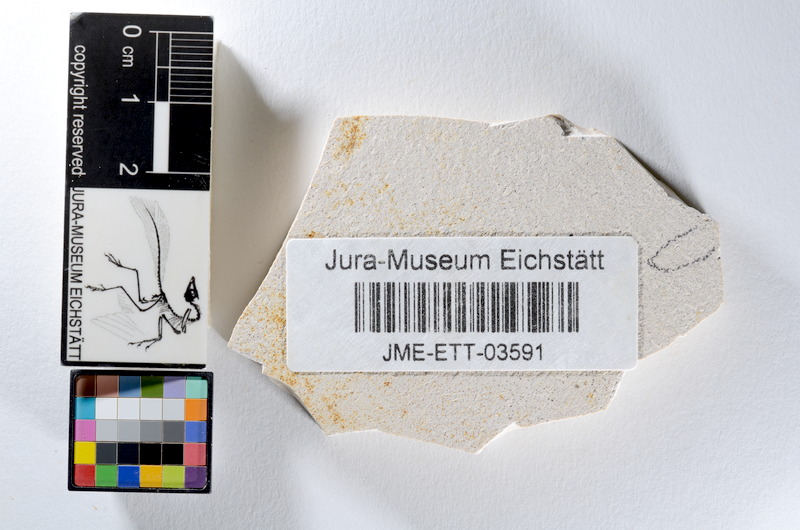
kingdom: Animalia
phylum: Chordata
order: Salmoniformes
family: Orthogonikleithridae
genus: Orthogonikleithrus
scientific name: Orthogonikleithrus hoelli
